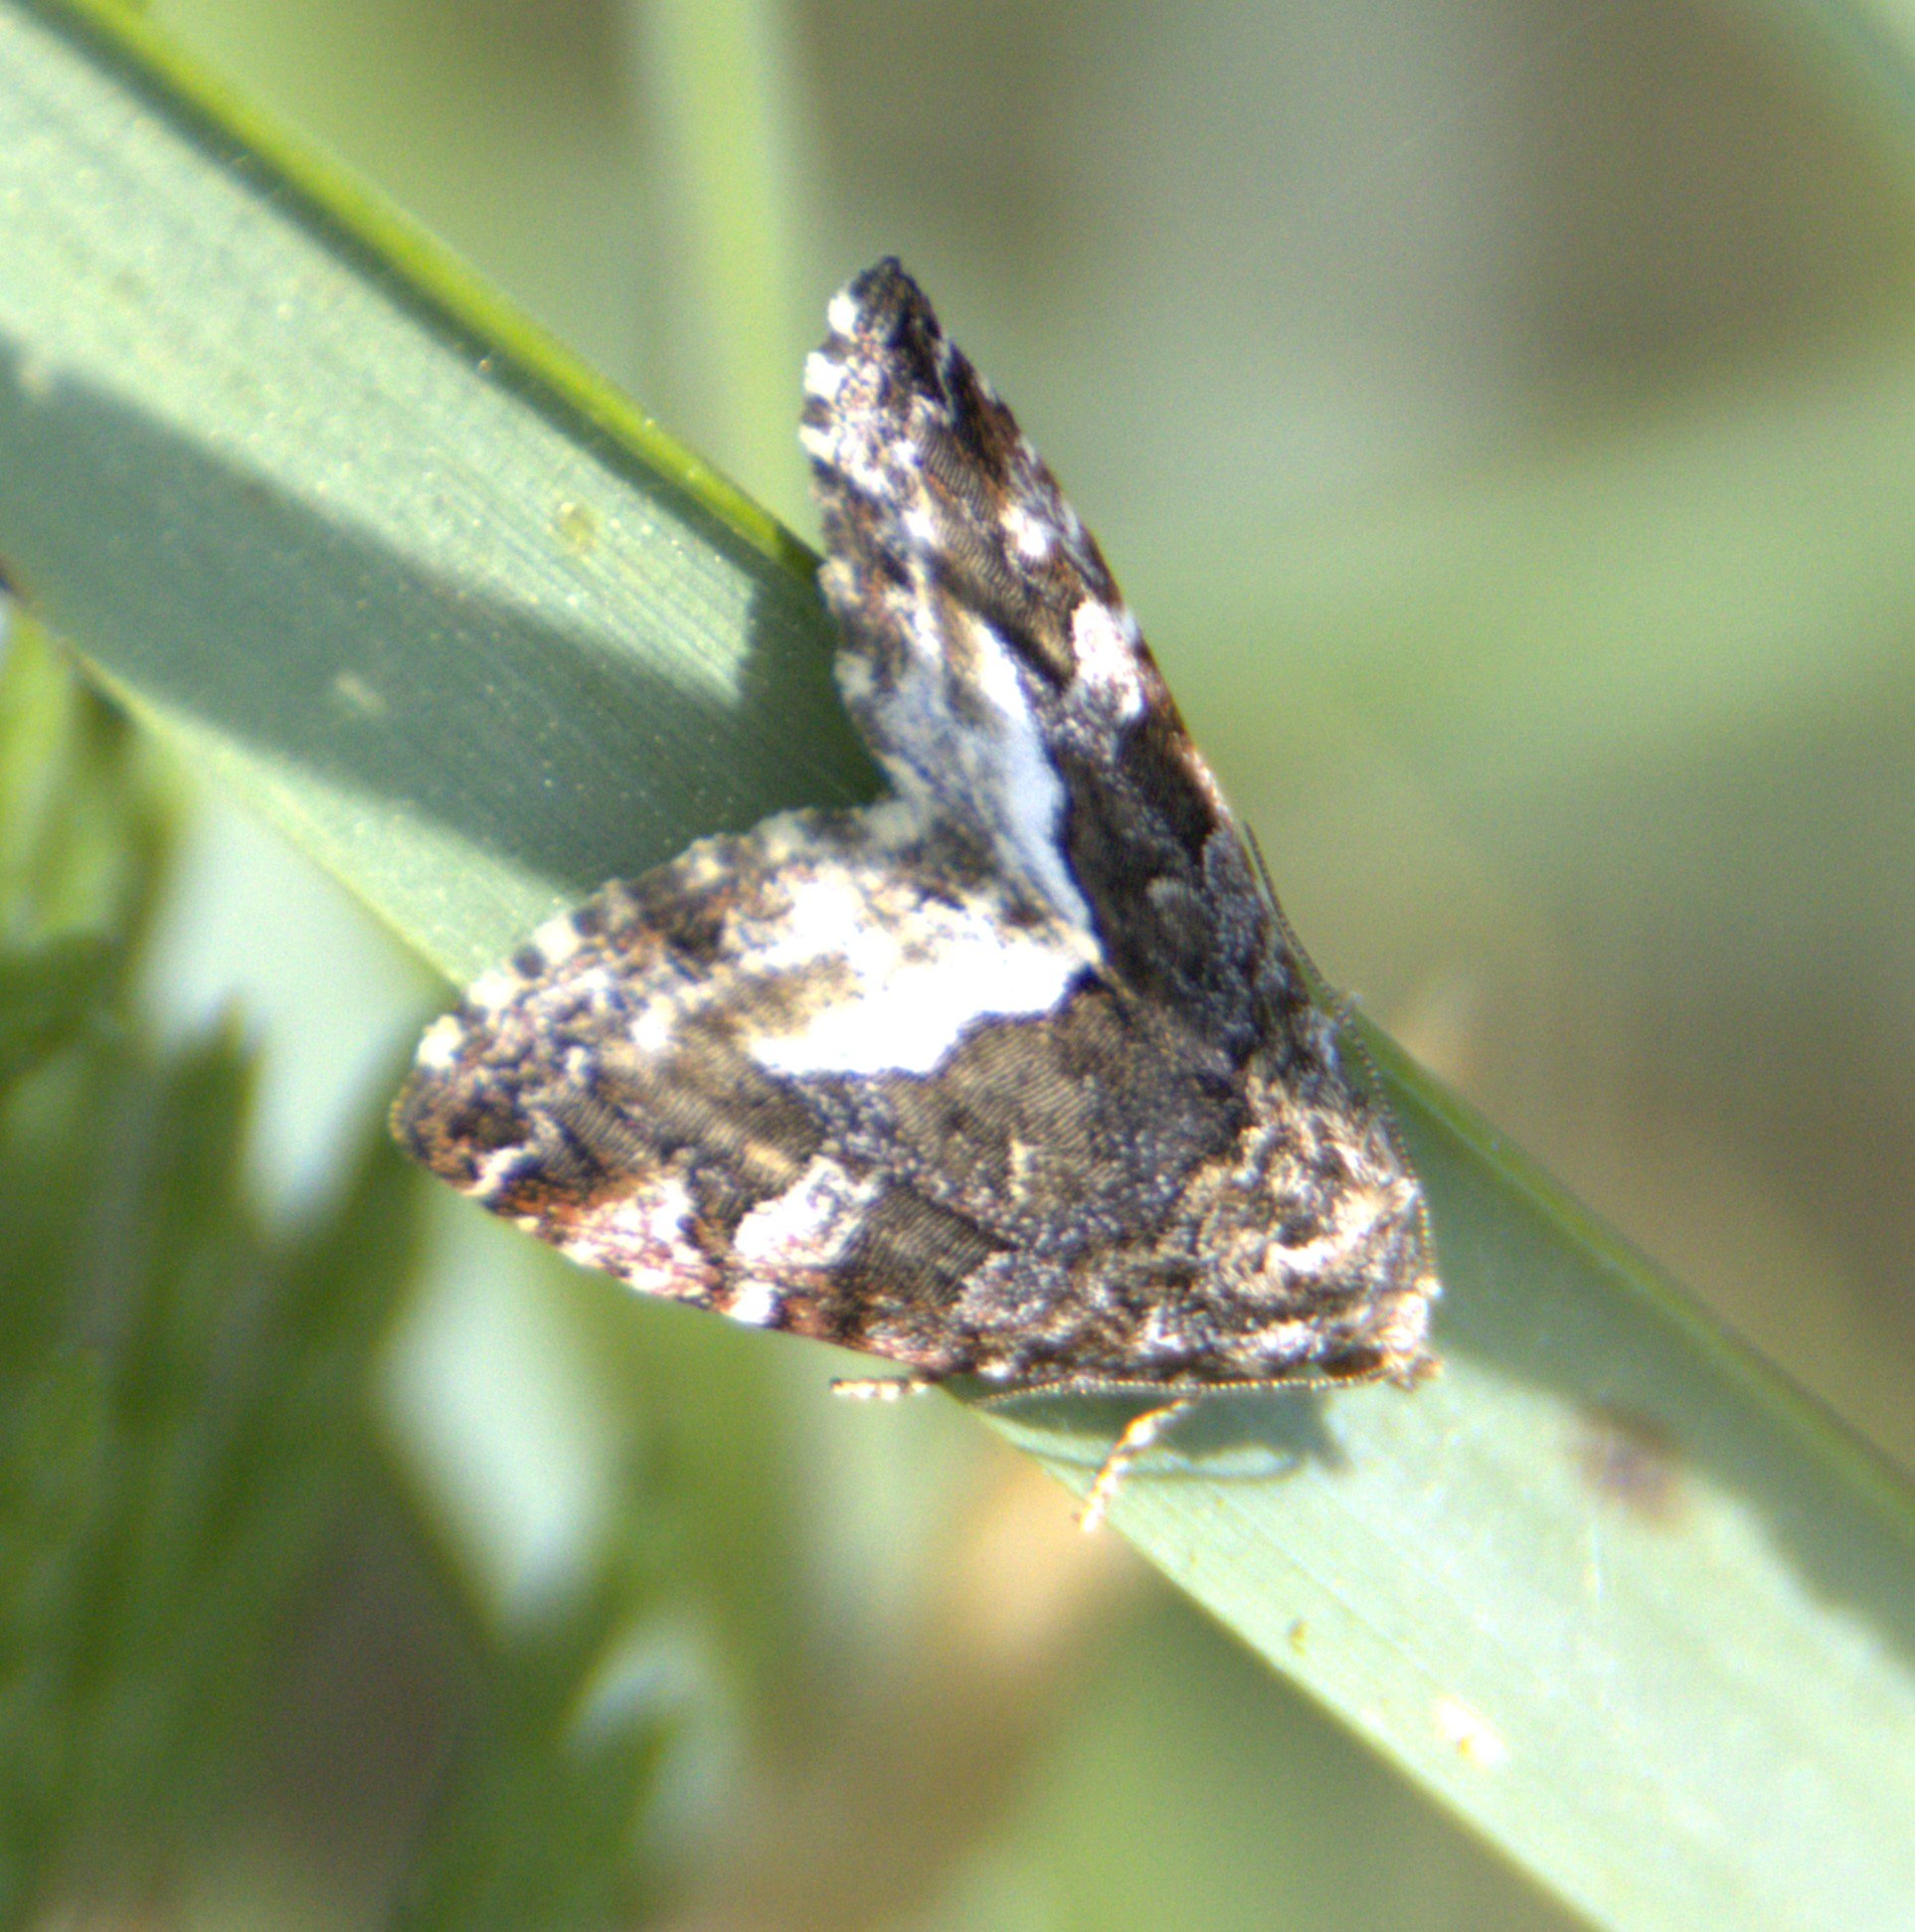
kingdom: Animalia
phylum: Arthropoda
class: Insecta
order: Lepidoptera
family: Noctuidae
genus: Deltote
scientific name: Deltote pygarga
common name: Hvidhjørnet dagugle
